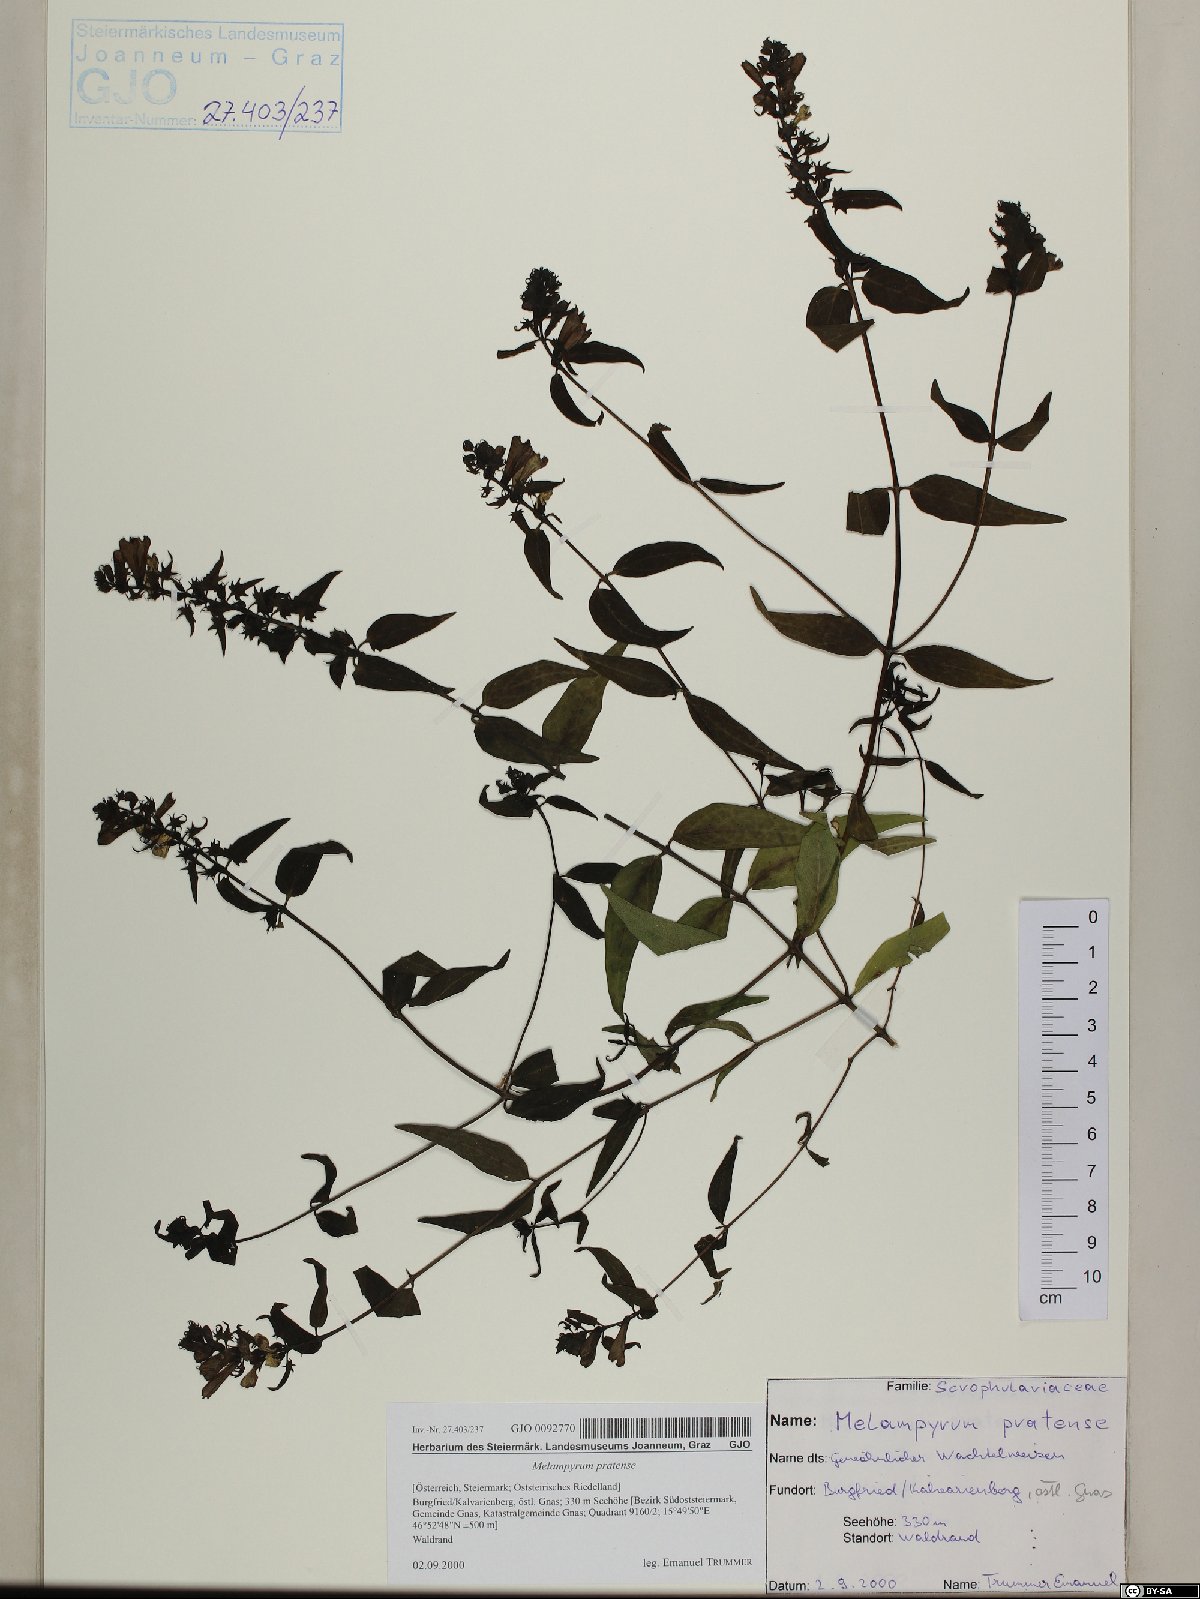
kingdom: Plantae
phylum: Tracheophyta
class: Magnoliopsida
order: Lamiales
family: Orobanchaceae
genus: Melampyrum
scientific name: Melampyrum pratense
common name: Common cow-wheat
